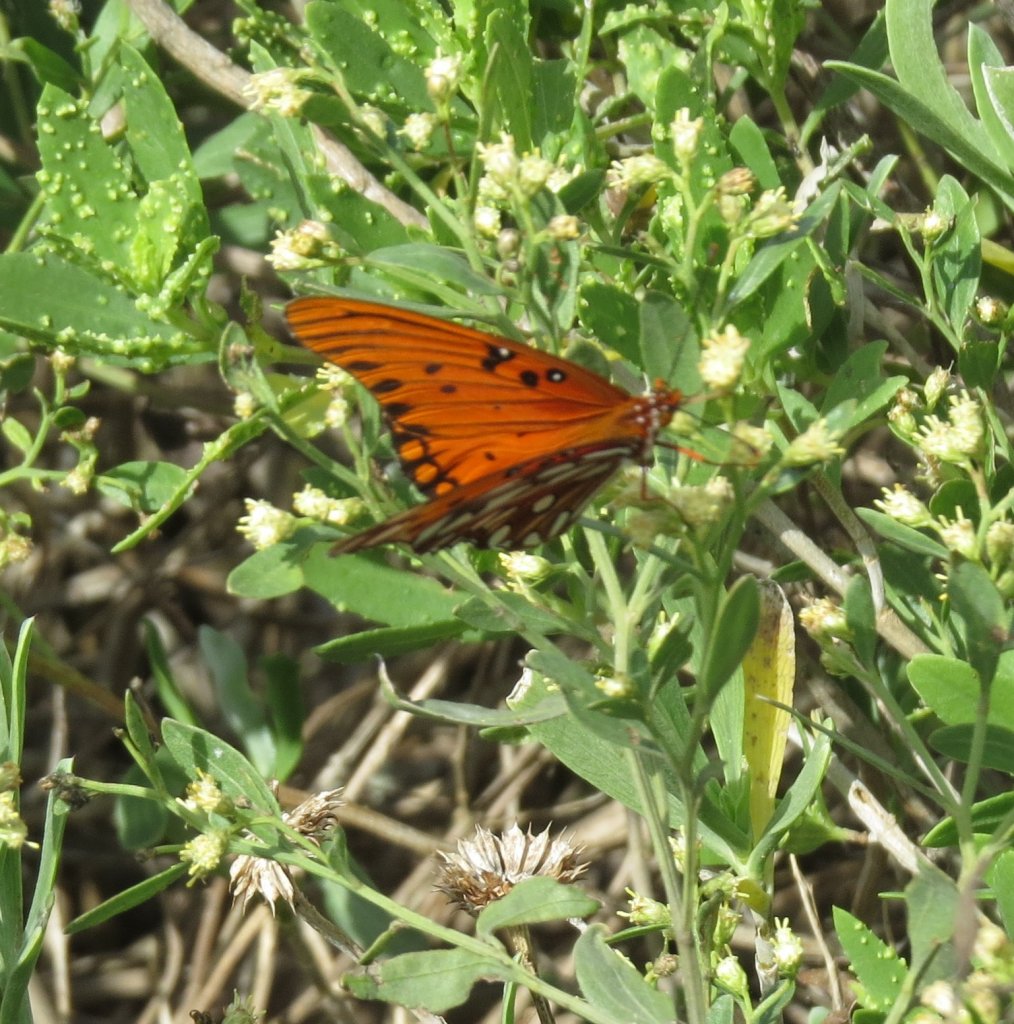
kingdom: Animalia
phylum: Arthropoda
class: Insecta
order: Lepidoptera
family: Nymphalidae
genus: Dione
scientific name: Dione vanillae
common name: Gulf Fritillary
